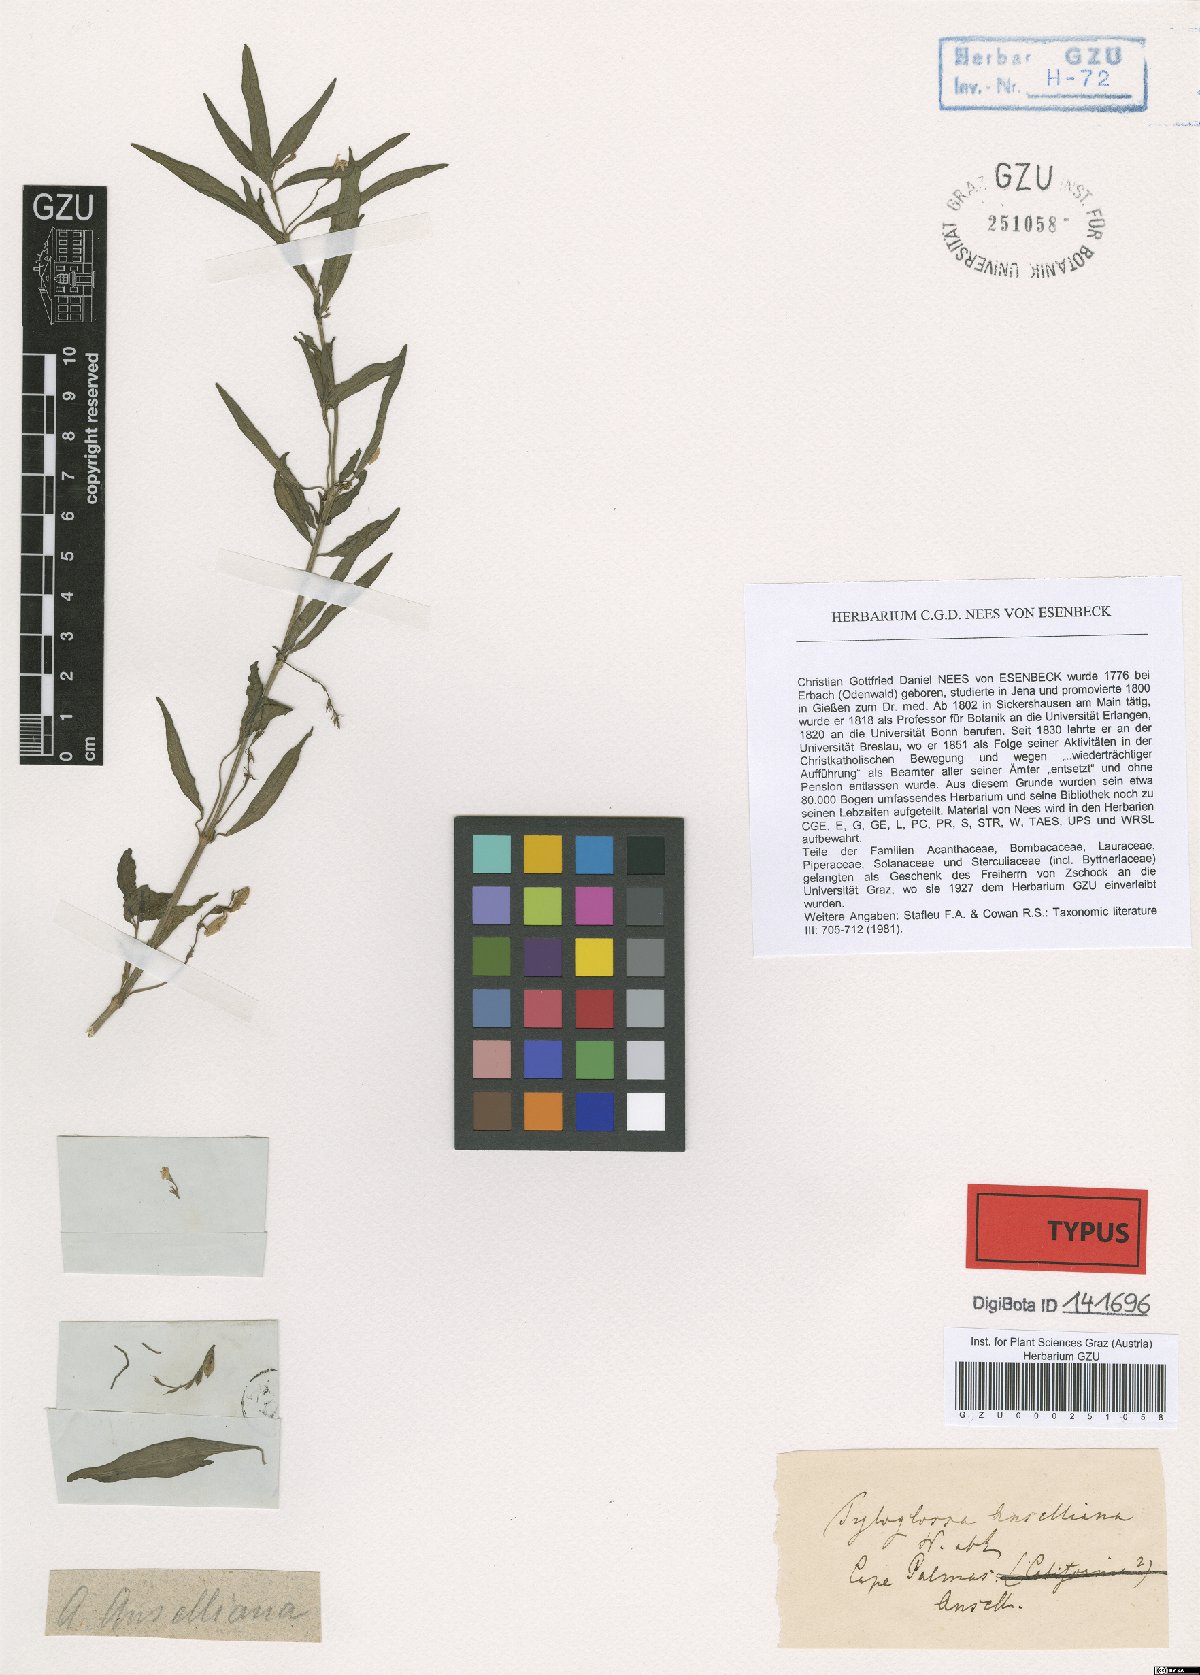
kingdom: Plantae
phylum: Tracheophyta
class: Magnoliopsida
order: Lamiales
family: Acanthaceae
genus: Justicia
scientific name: Justicia anselliana
